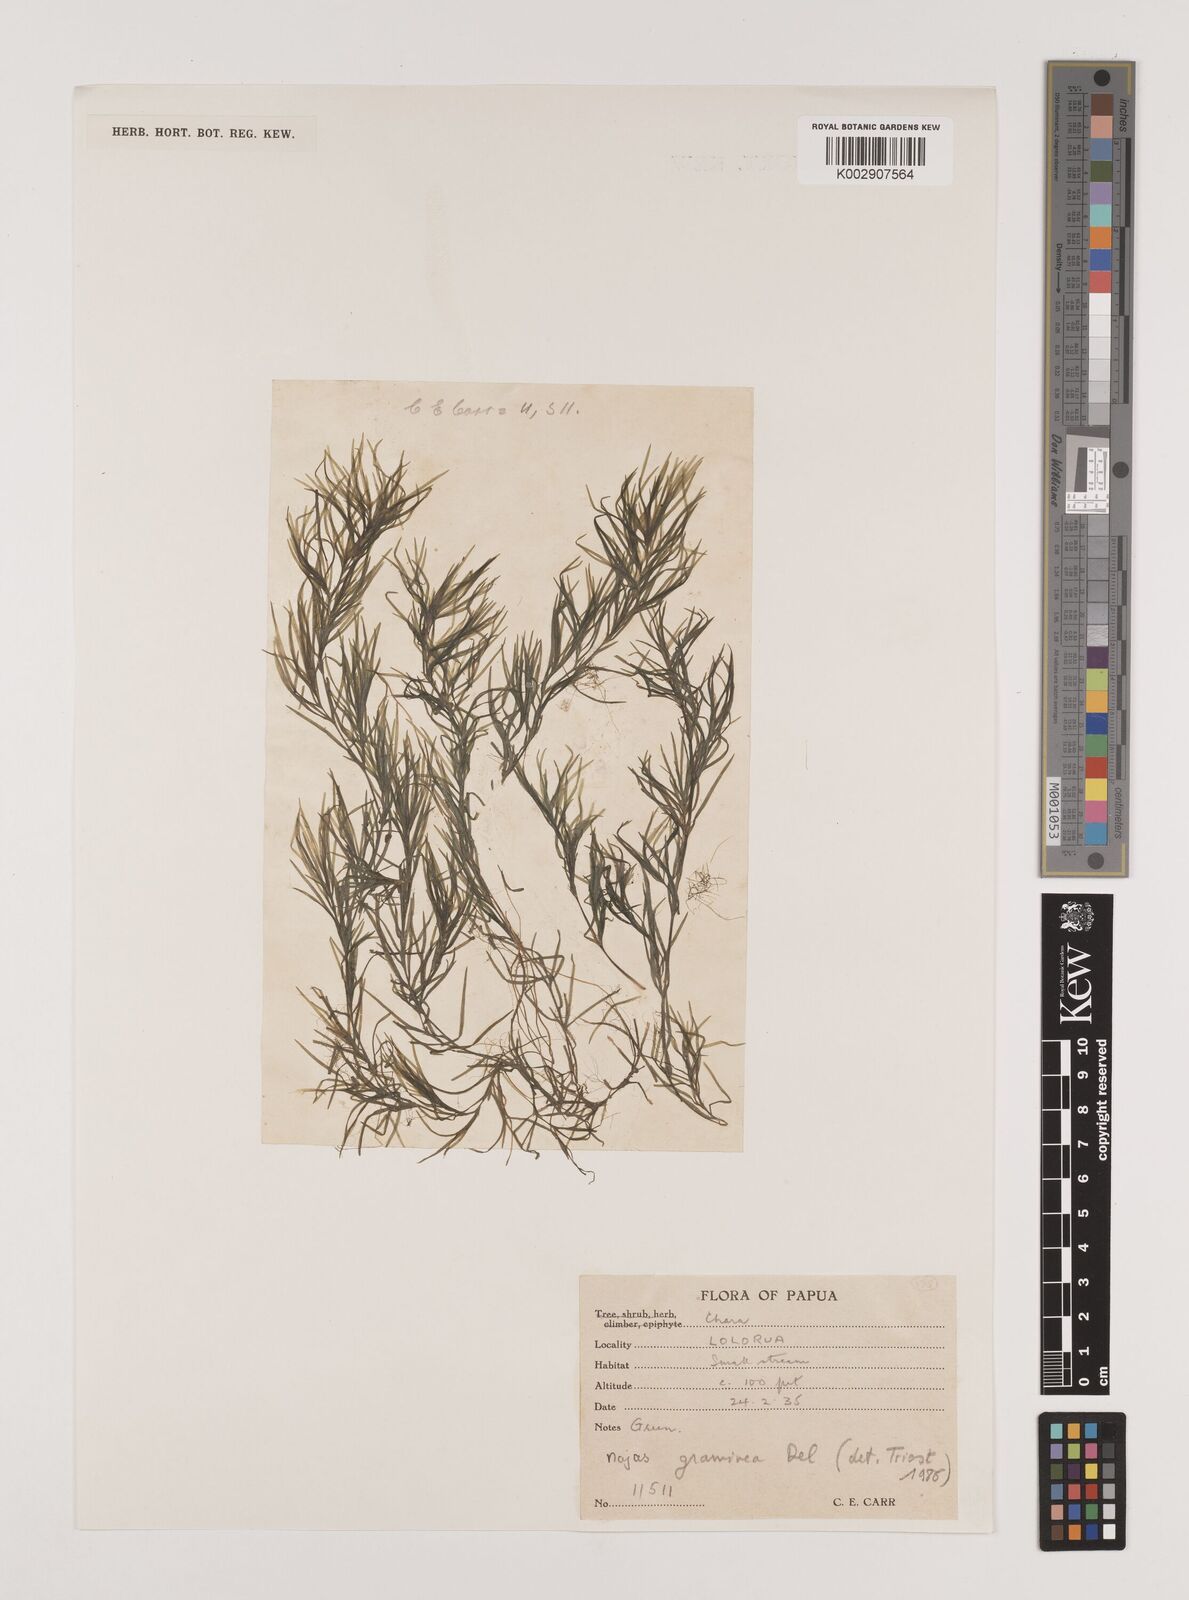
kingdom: Plantae
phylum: Tracheophyta
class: Liliopsida
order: Alismatales
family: Hydrocharitaceae
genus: Najas
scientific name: Najas graminea
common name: Ricefield waternymph
